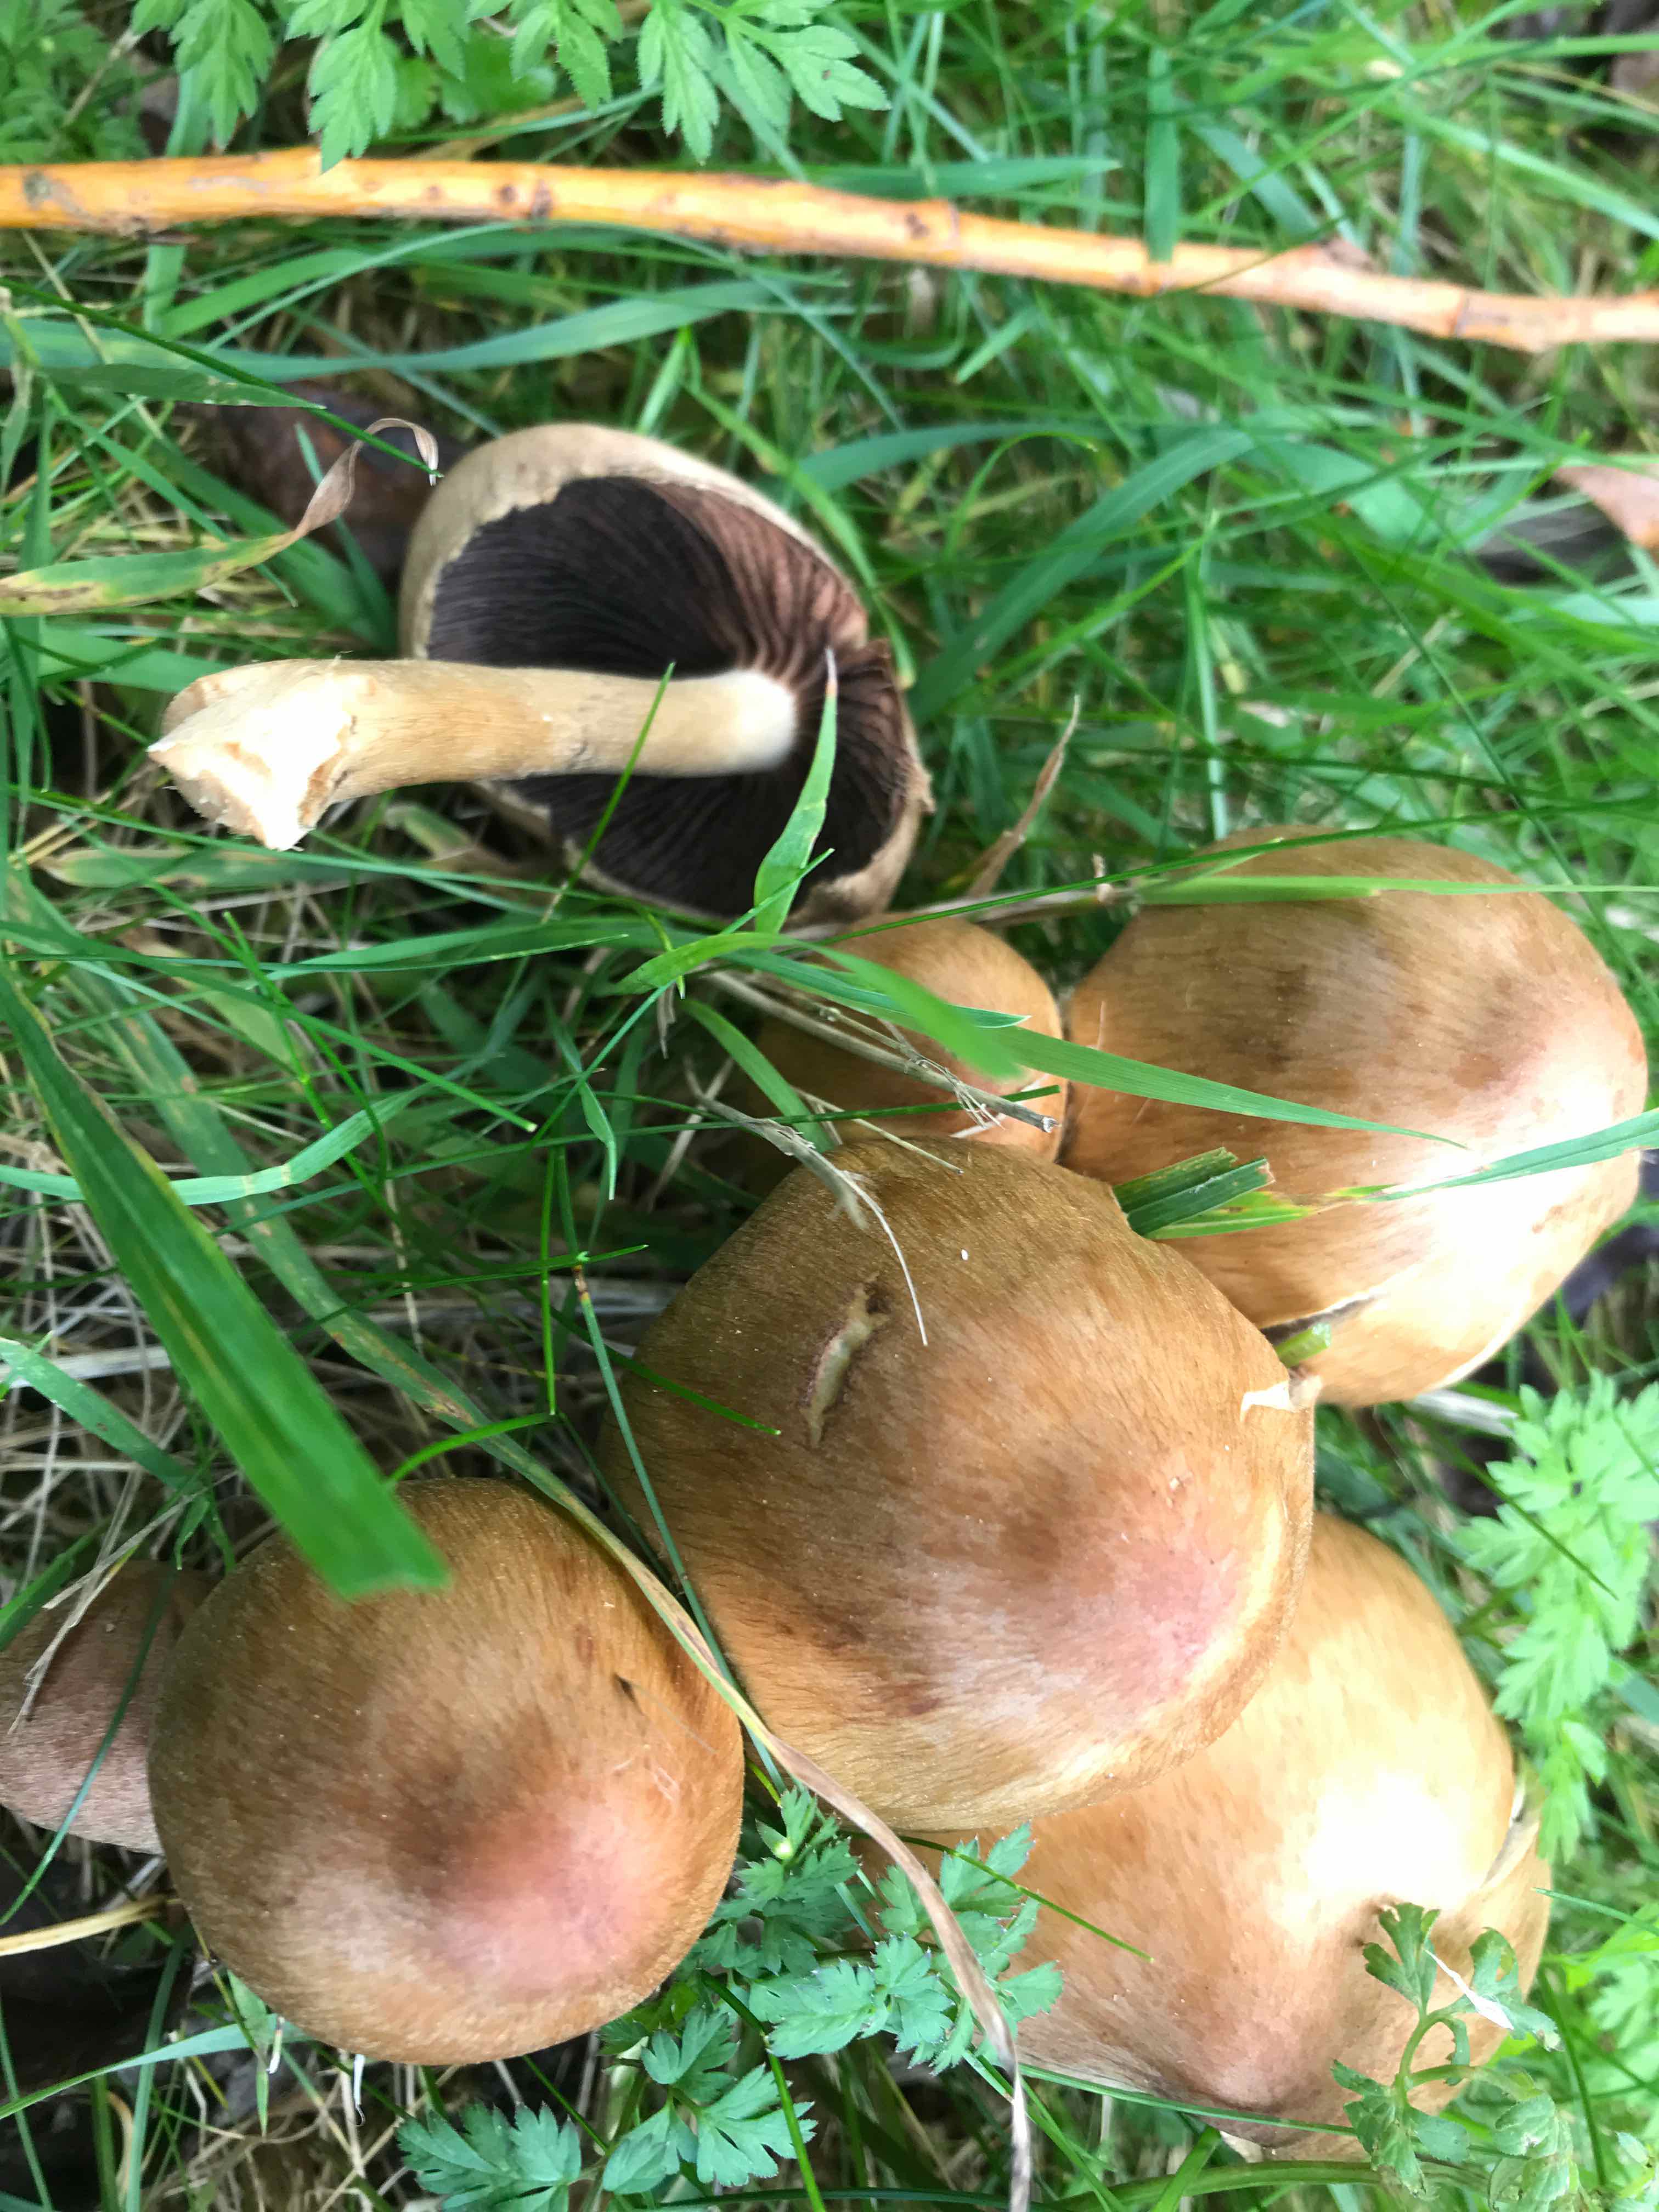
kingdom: Fungi
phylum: Basidiomycota
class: Agaricomycetes
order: Agaricales
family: Psathyrellaceae
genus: Lacrymaria
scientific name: Lacrymaria lacrymabunda
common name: grædende mørkhat
